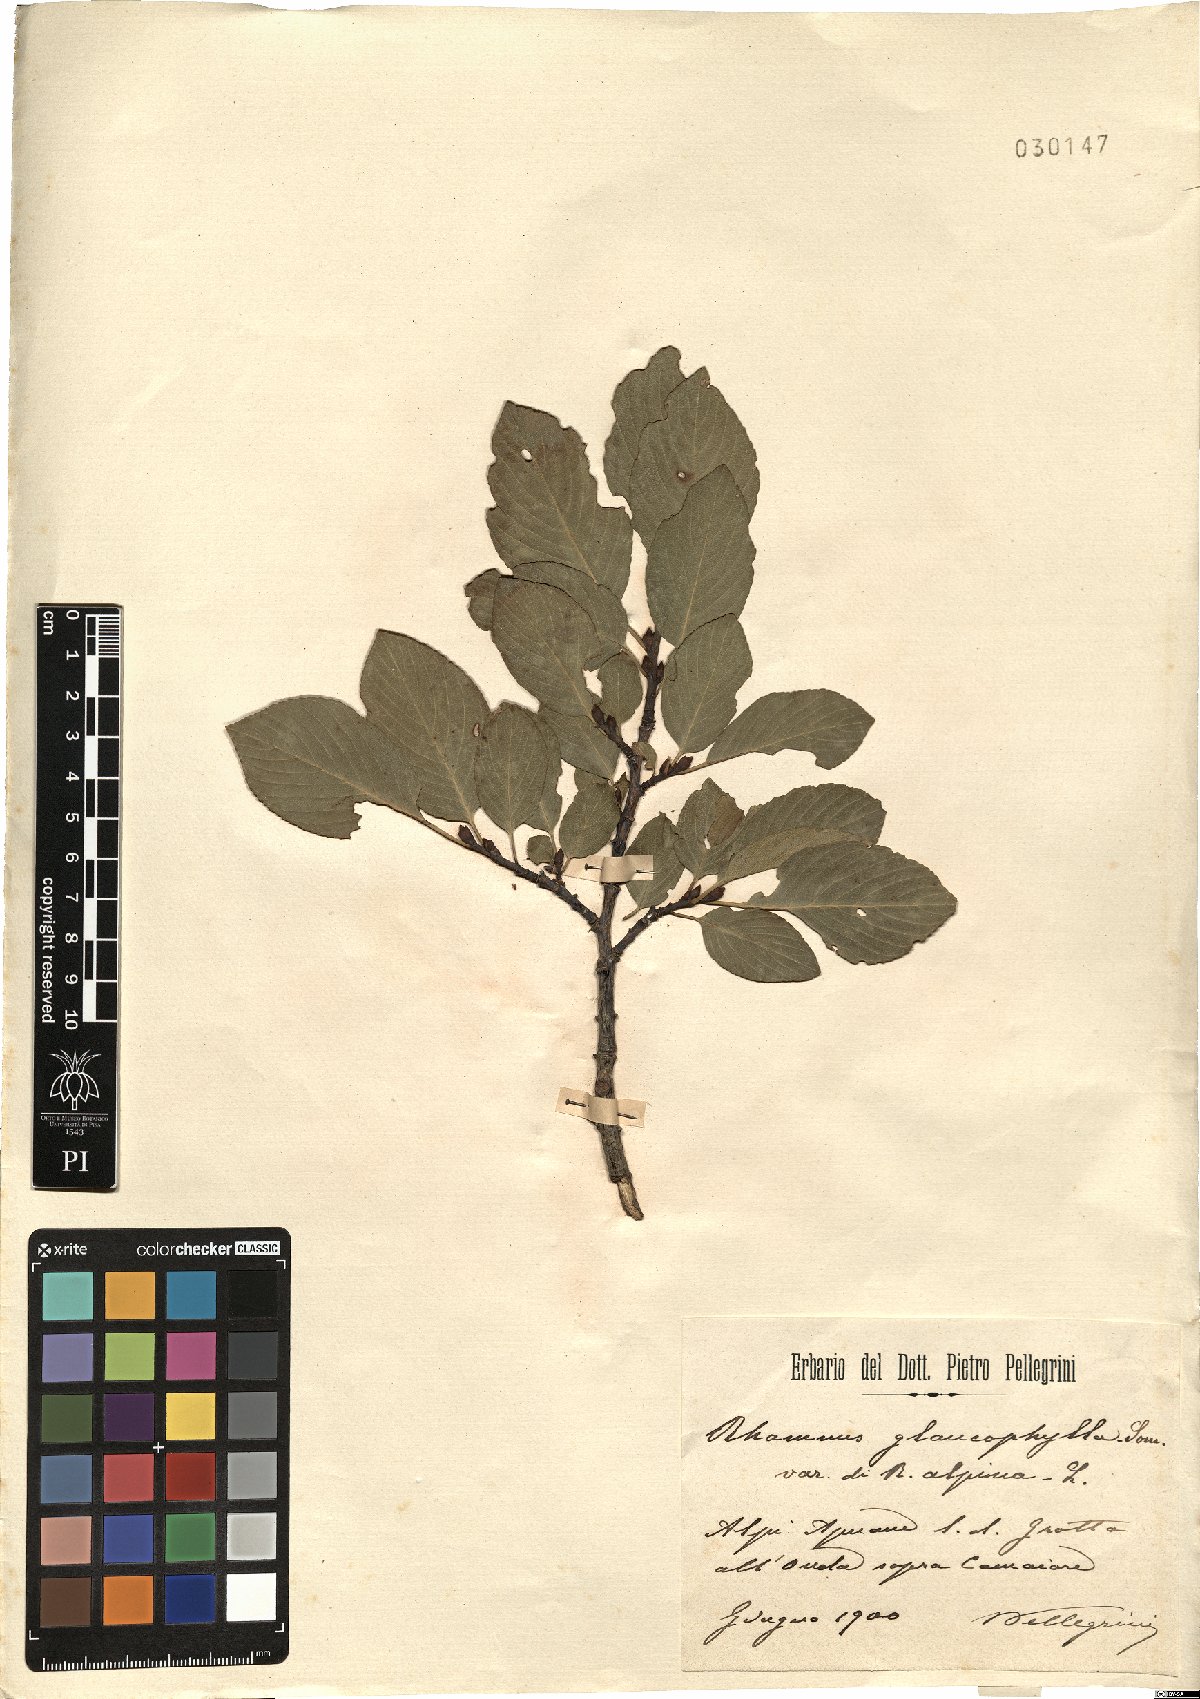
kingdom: Plantae
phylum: Tracheophyta
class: Magnoliopsida
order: Rosales
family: Rhamnaceae
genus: Atadinus
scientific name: Atadinus glaucophyllus
